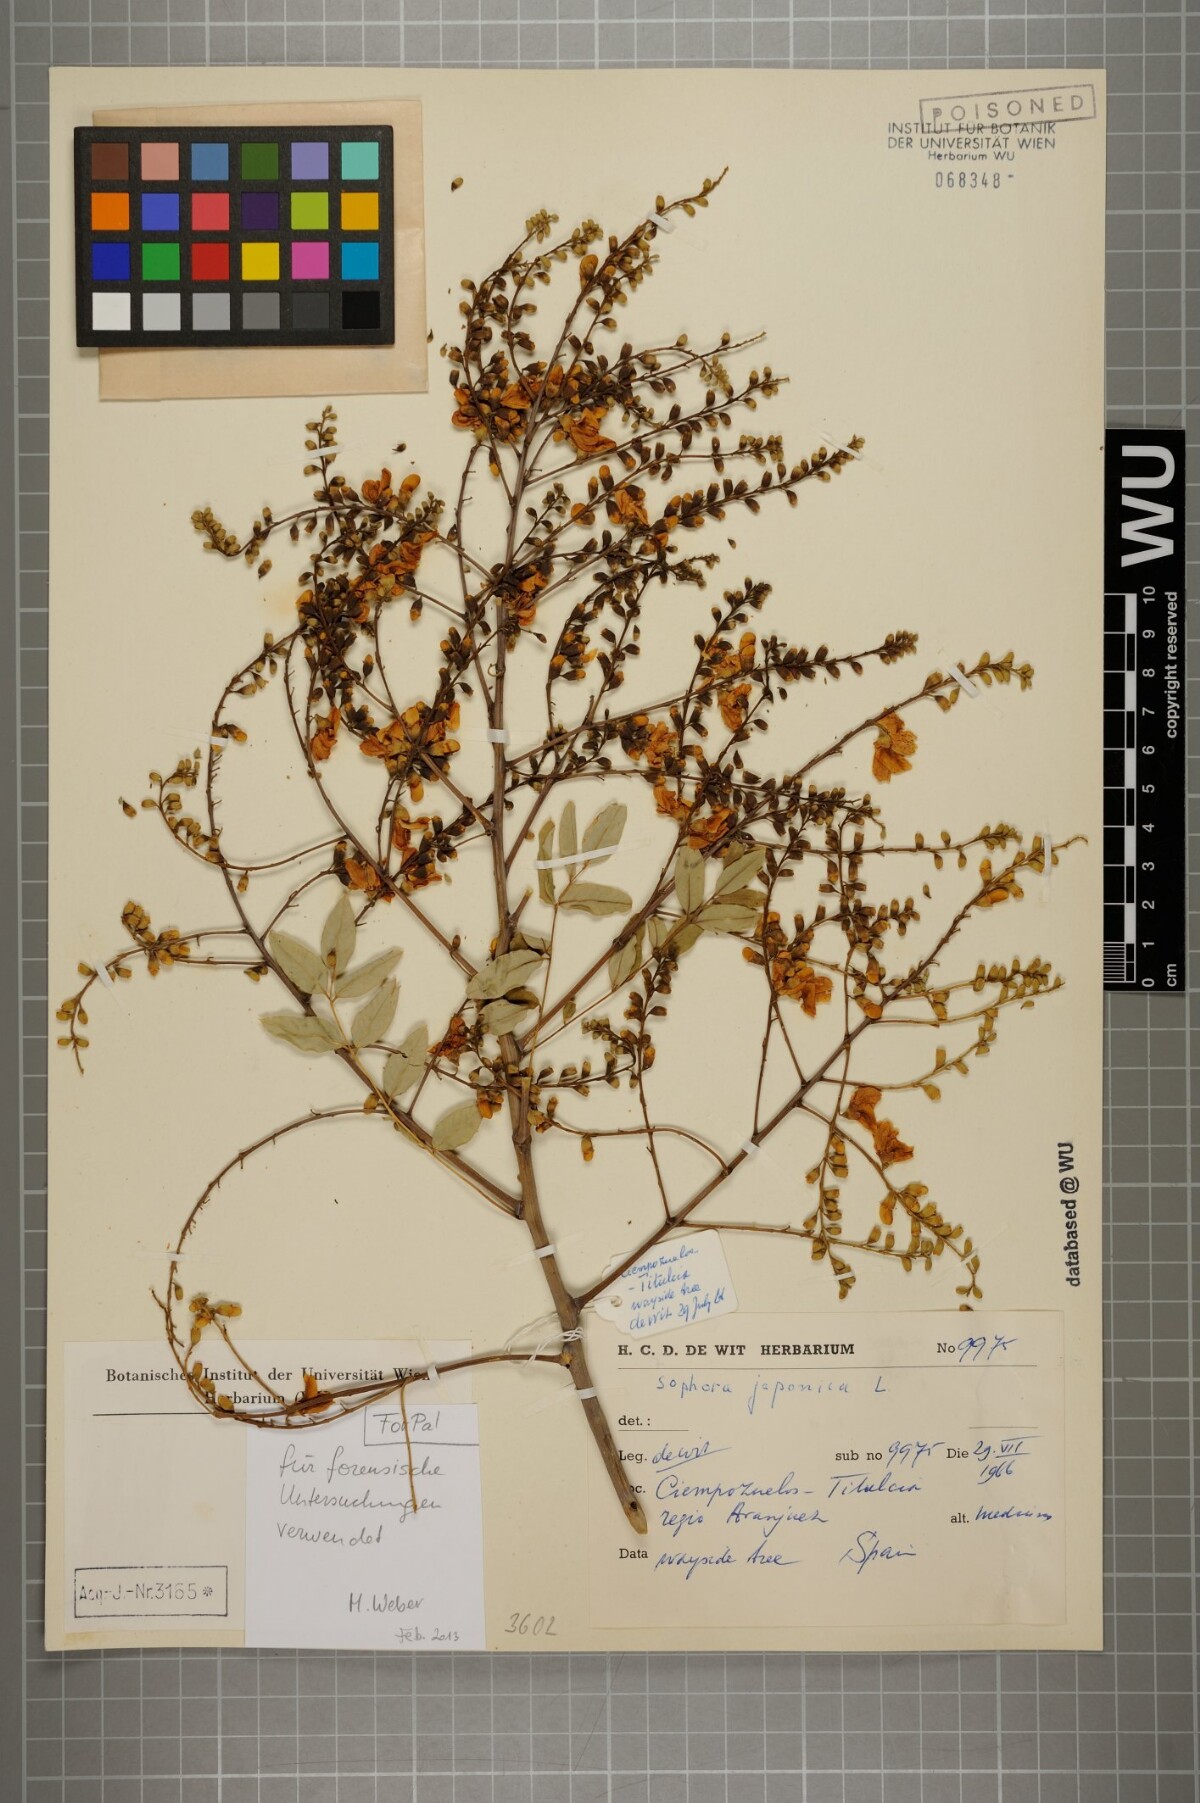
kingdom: Plantae
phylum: Tracheophyta
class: Magnoliopsida
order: Fabales
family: Fabaceae
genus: Styphnolobium
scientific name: Styphnolobium japonicum
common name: Chinese scholartree
